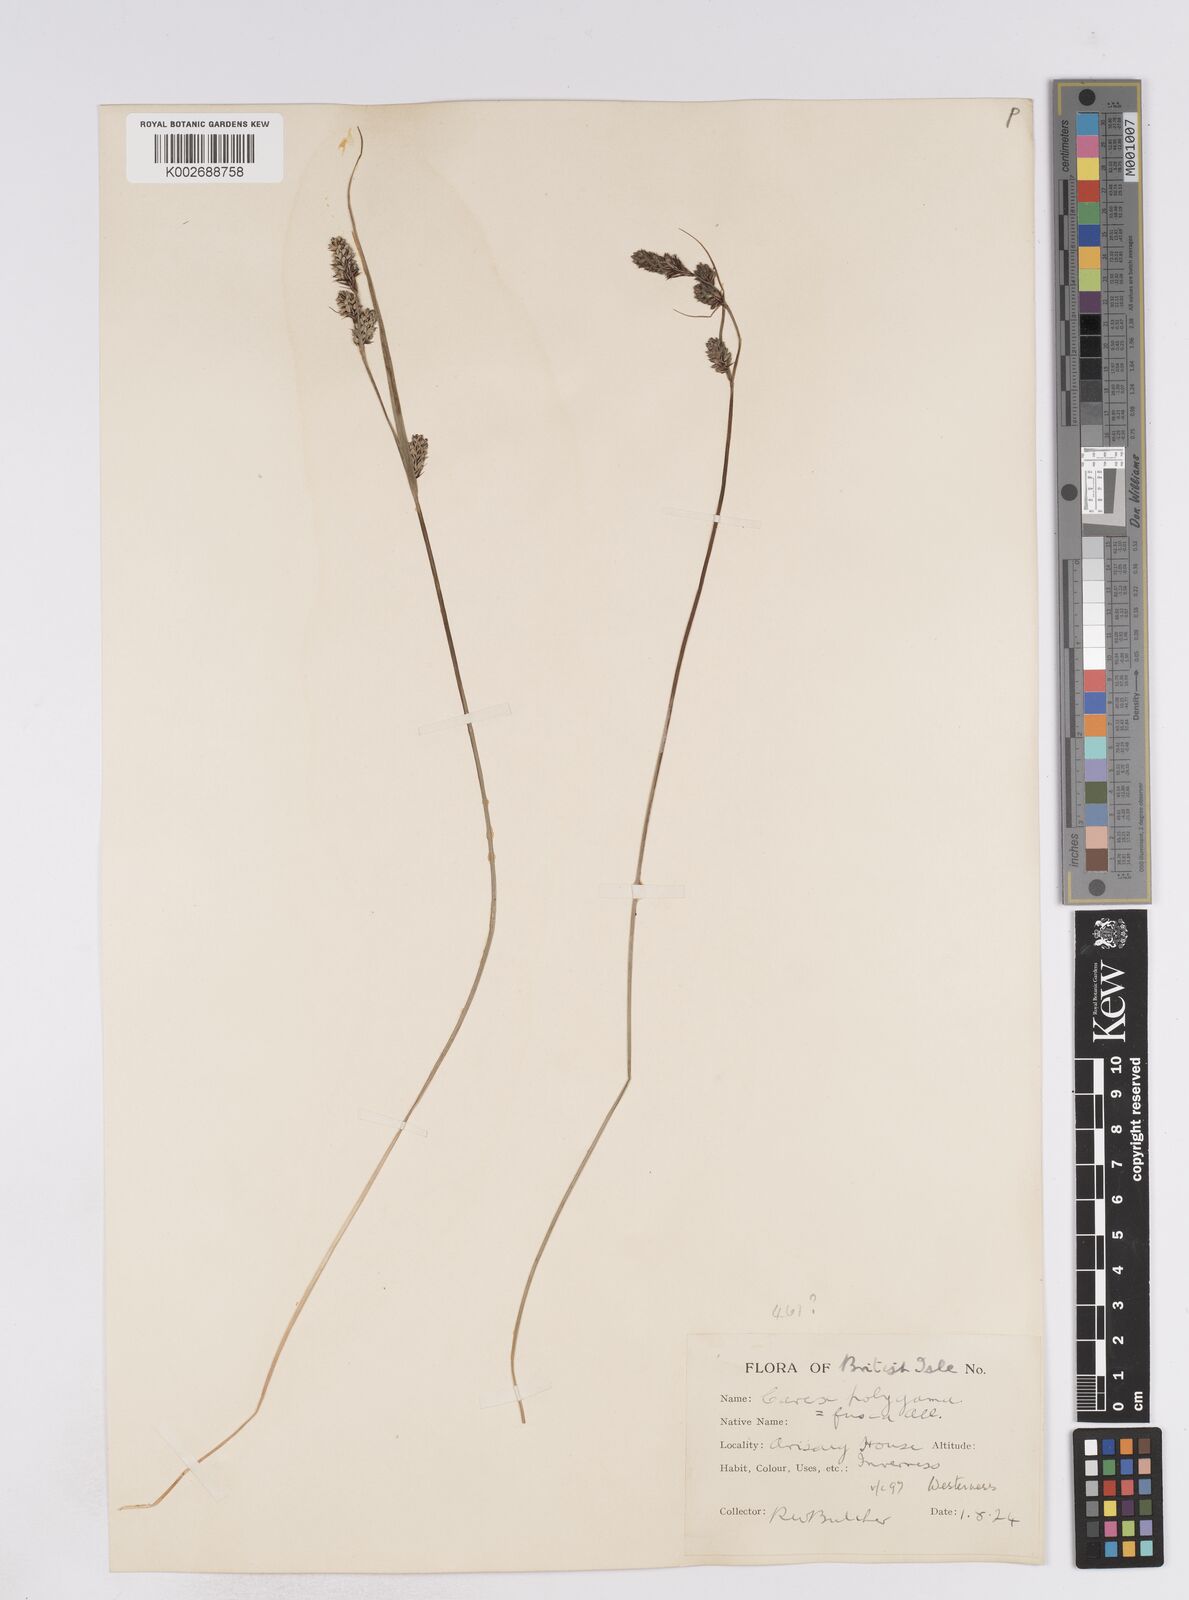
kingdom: Plantae
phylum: Tracheophyta
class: Liliopsida
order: Poales
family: Cyperaceae
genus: Carex
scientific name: Carex buxbaumii
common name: Club sedge
